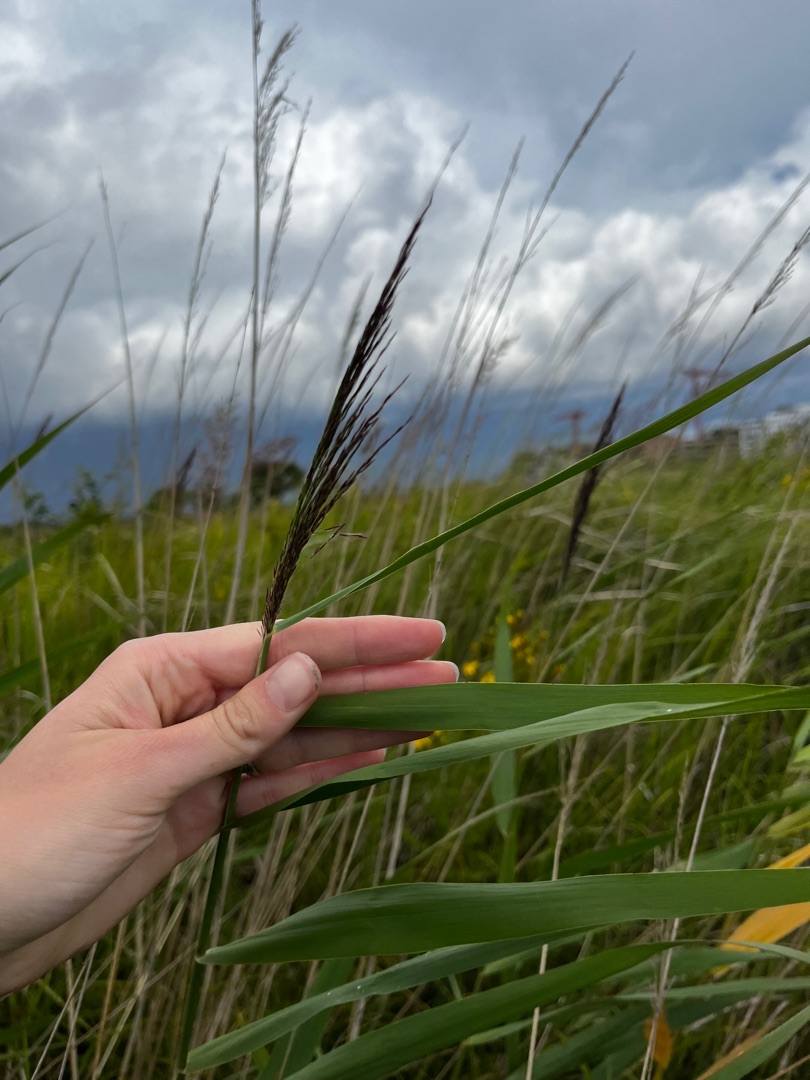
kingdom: Plantae
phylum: Tracheophyta
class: Liliopsida
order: Poales
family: Poaceae
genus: Phragmites
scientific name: Phragmites australis
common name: Tagrør
